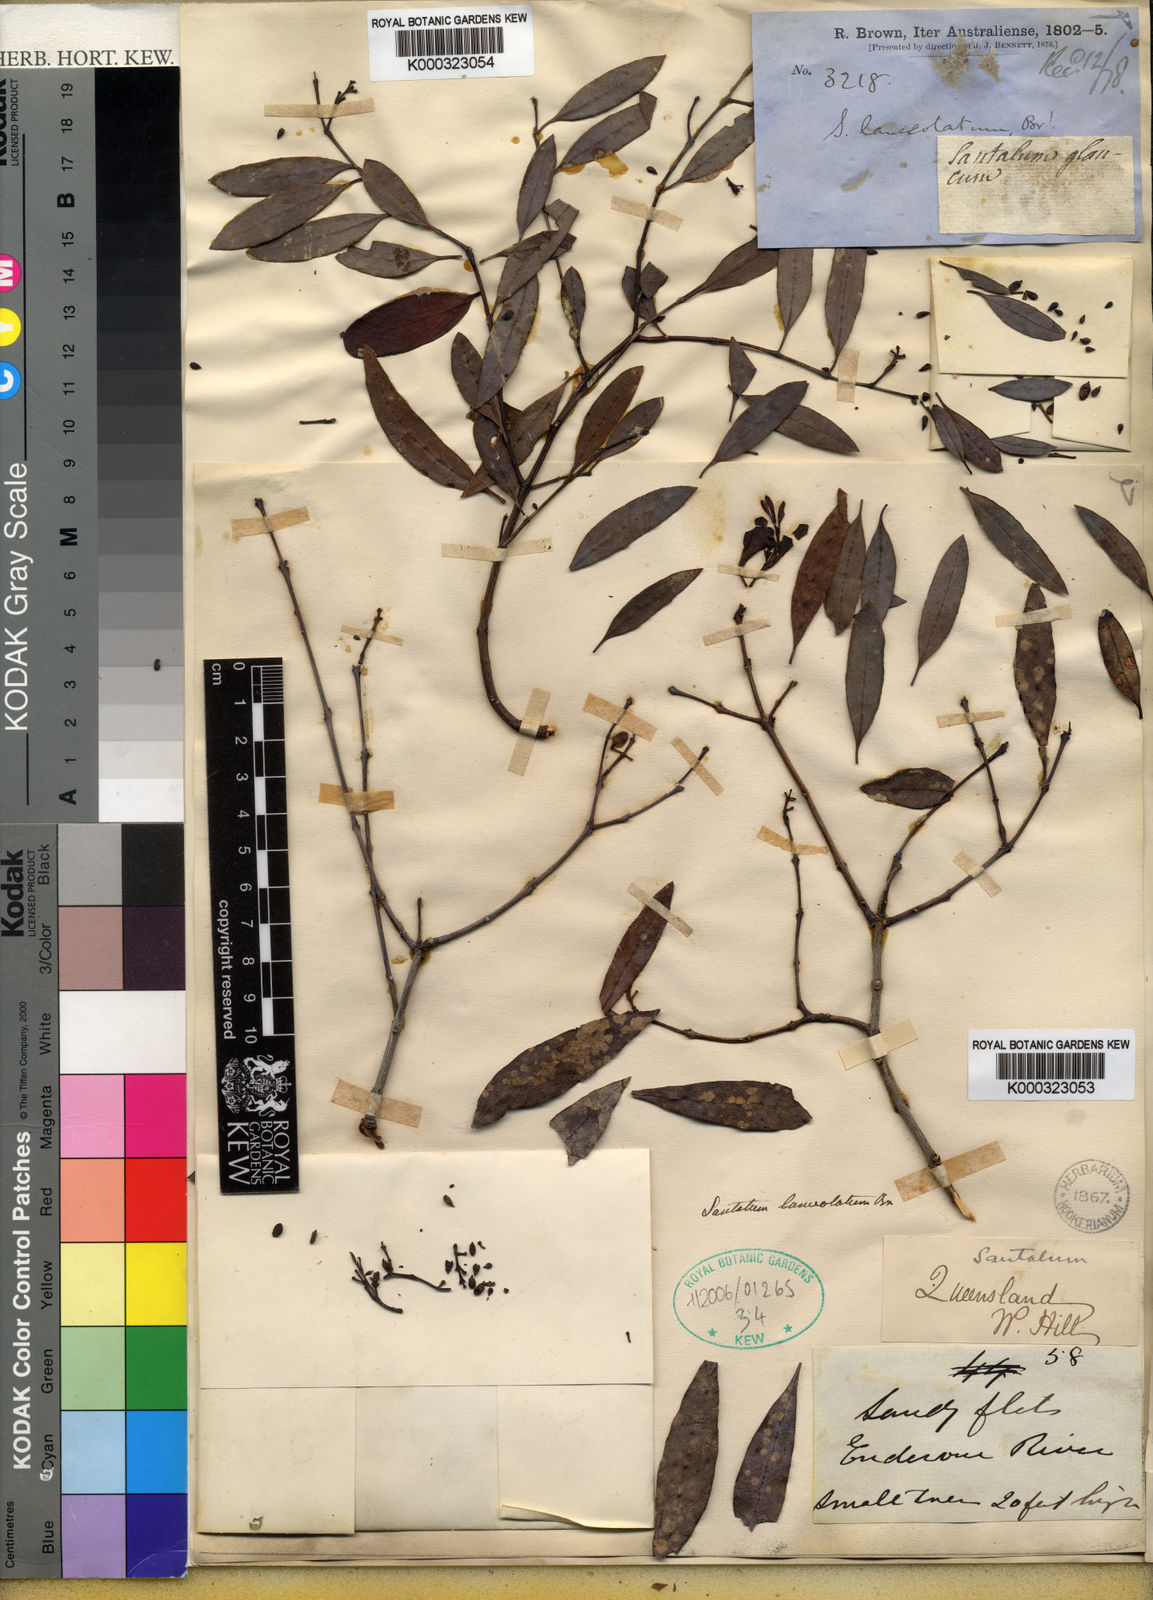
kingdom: Plantae
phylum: Tracheophyta
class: Magnoliopsida
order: Santalales
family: Santalaceae
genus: Santalum
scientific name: Santalum lanceolatum
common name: Ankwerley
